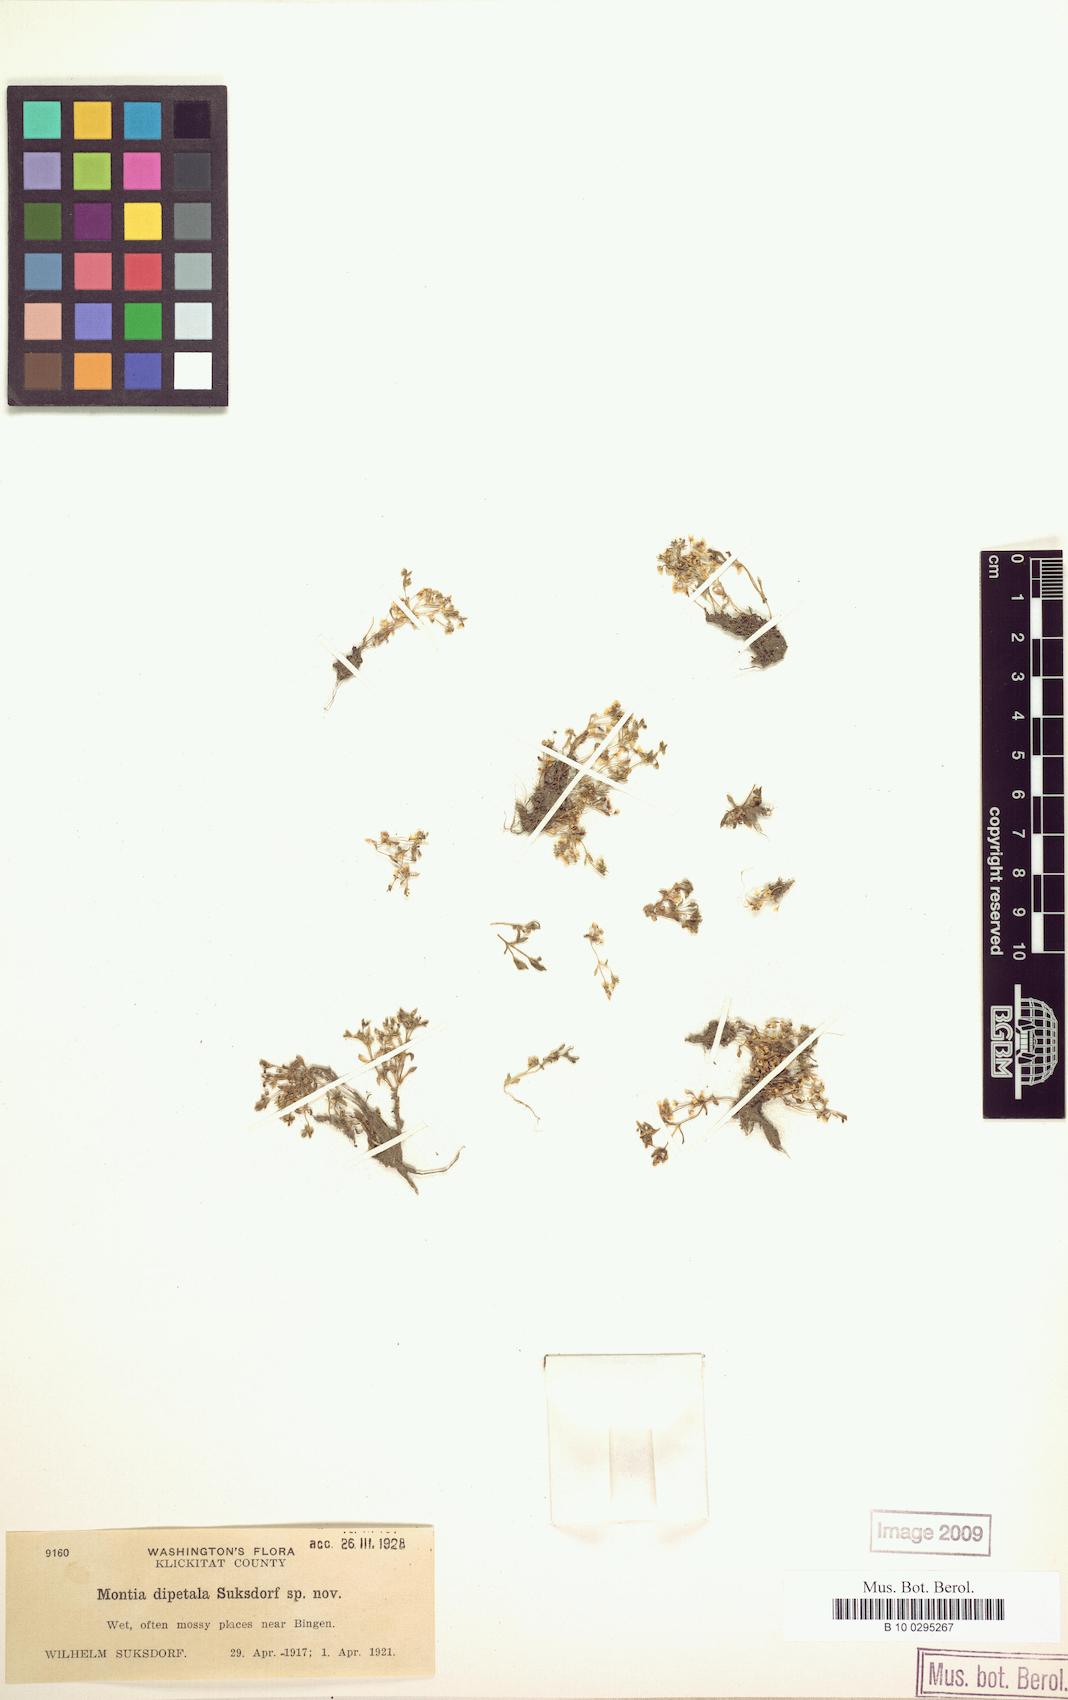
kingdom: Plantae
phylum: Tracheophyta
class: Magnoliopsida
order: Caryophyllales
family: Montiaceae
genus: Montia
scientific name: Montia fontana
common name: Blinks
